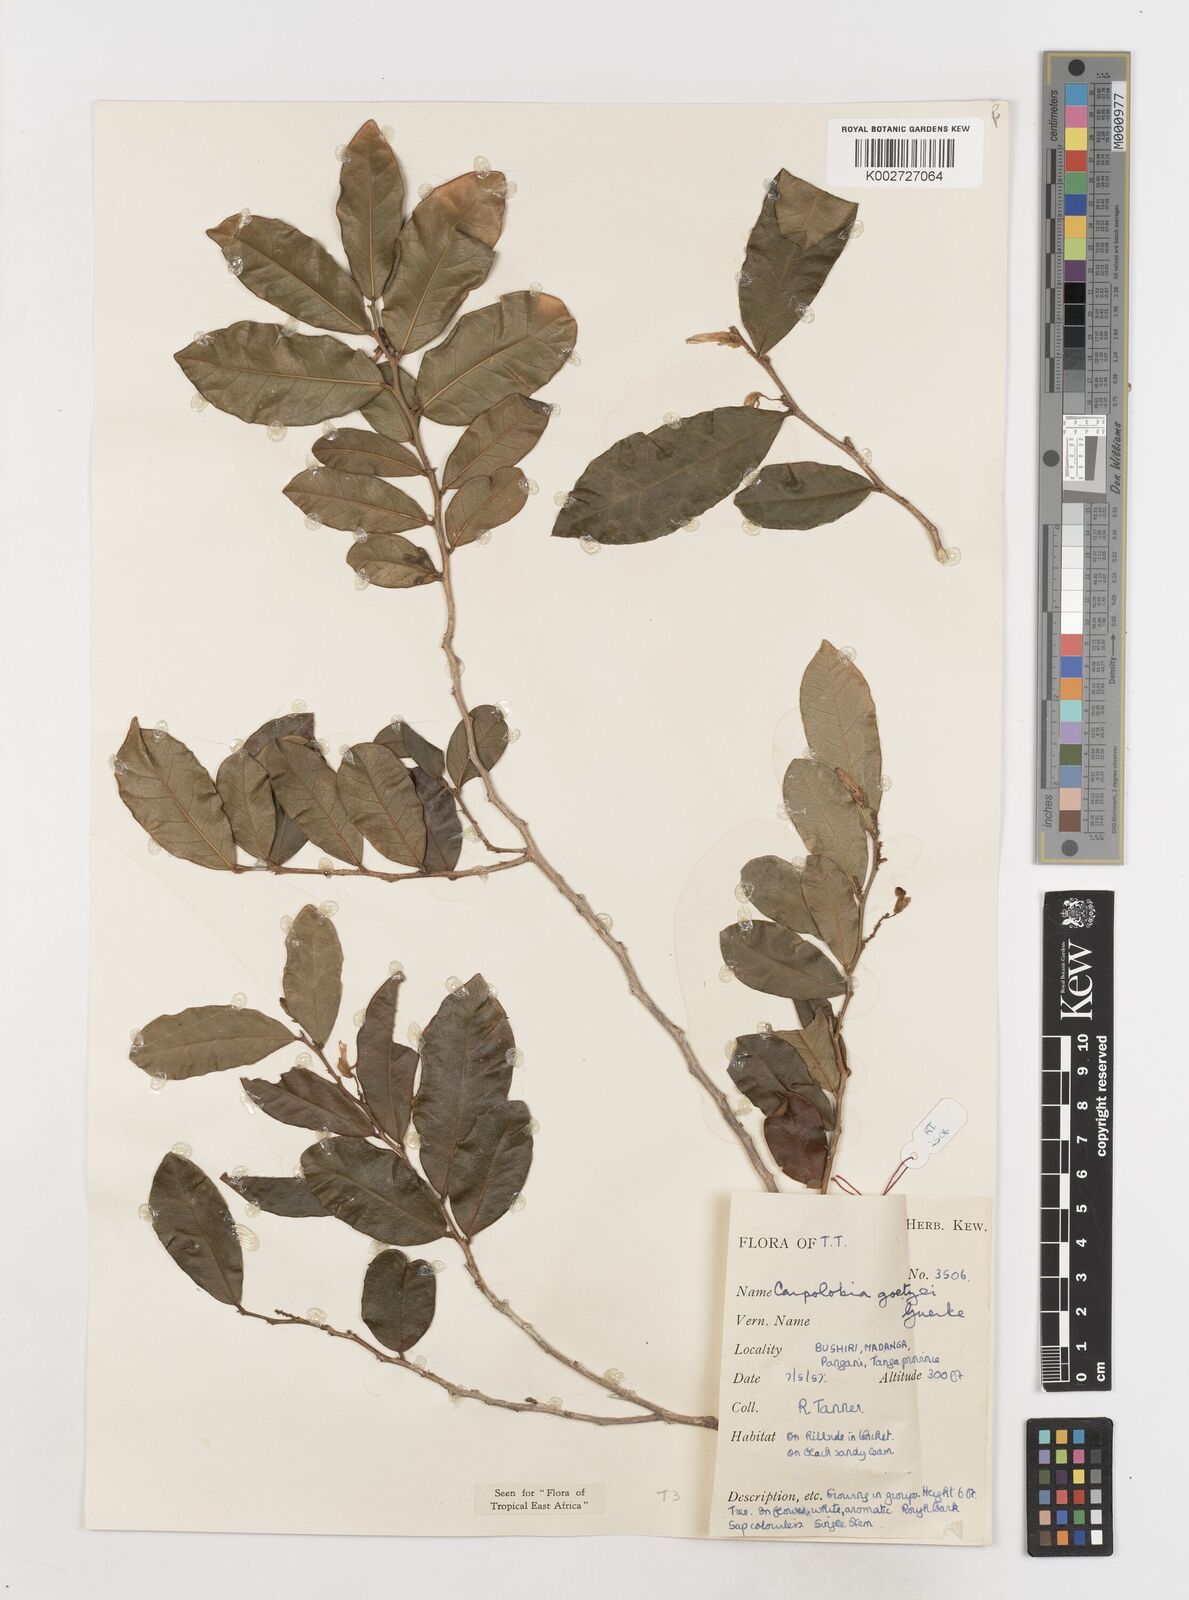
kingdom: Plantae
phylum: Tracheophyta
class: Magnoliopsida
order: Fabales
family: Polygalaceae
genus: Carpolobia
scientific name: Carpolobia goetzei
